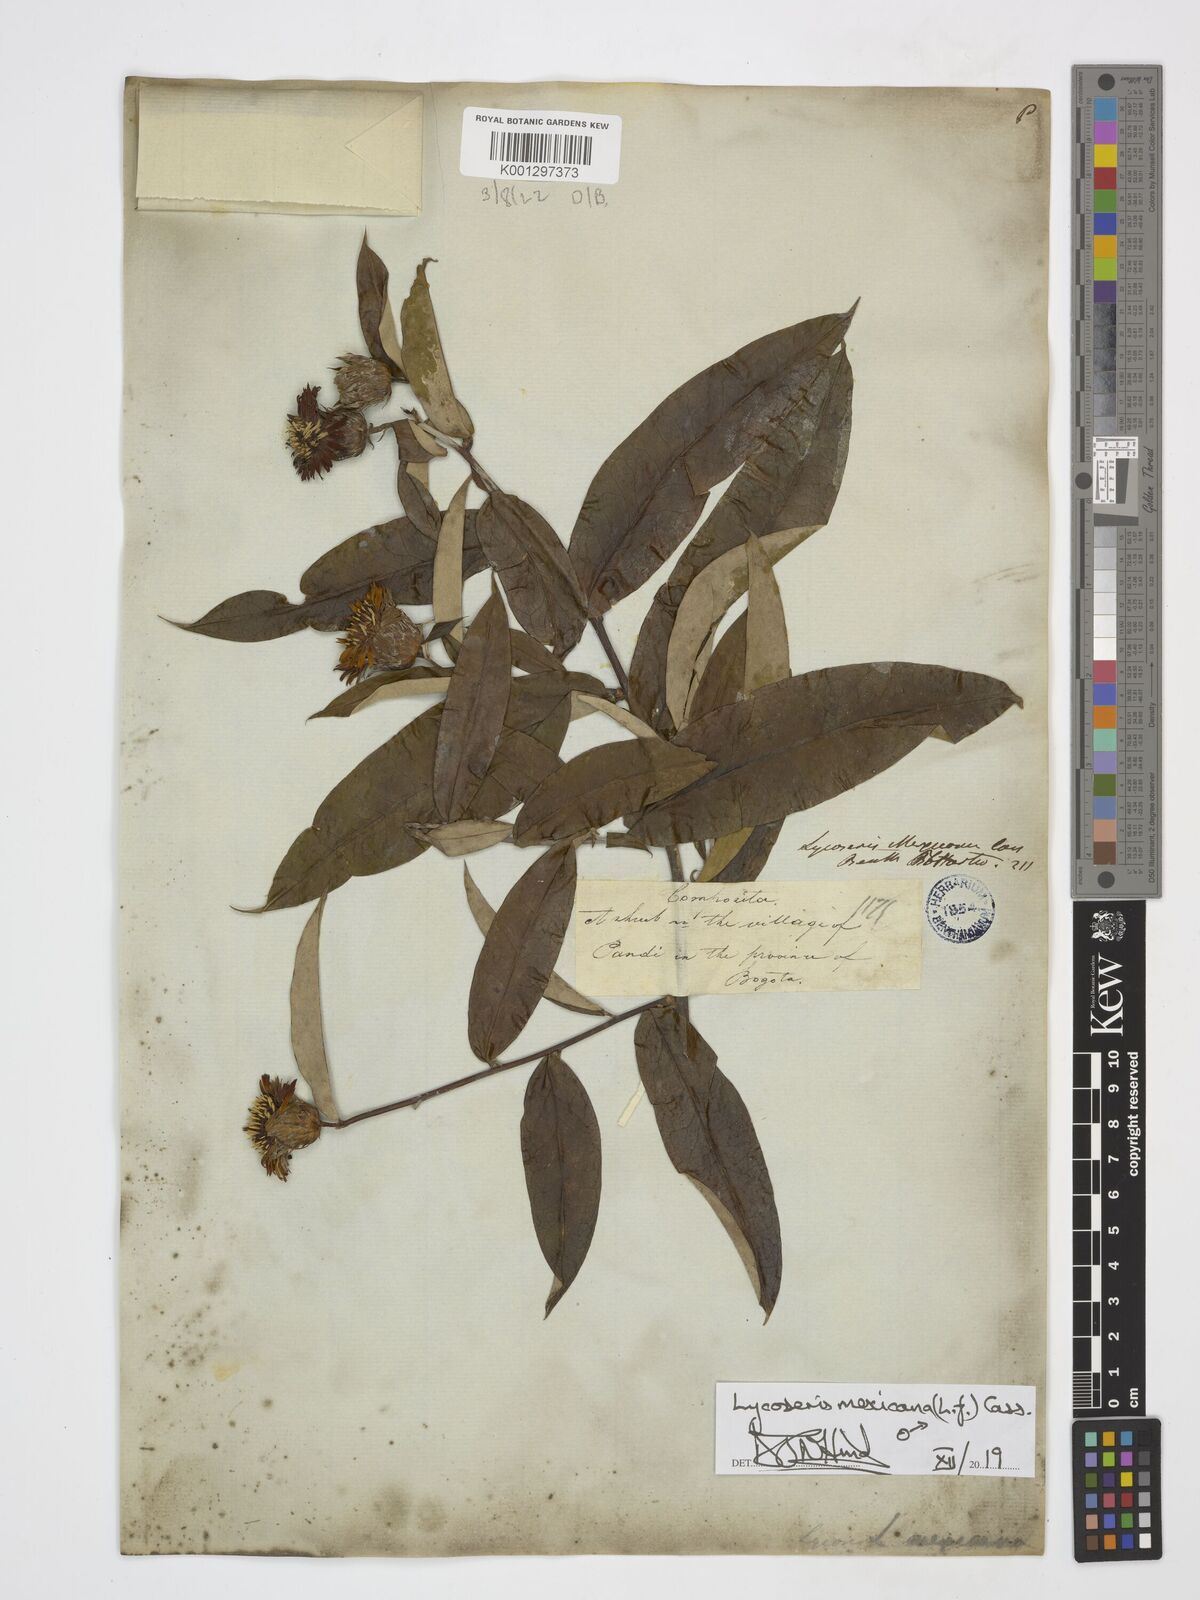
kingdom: Plantae
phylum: Tracheophyta
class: Magnoliopsida
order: Asterales
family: Asteraceae
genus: Lycoseris
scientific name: Lycoseris mexicana
